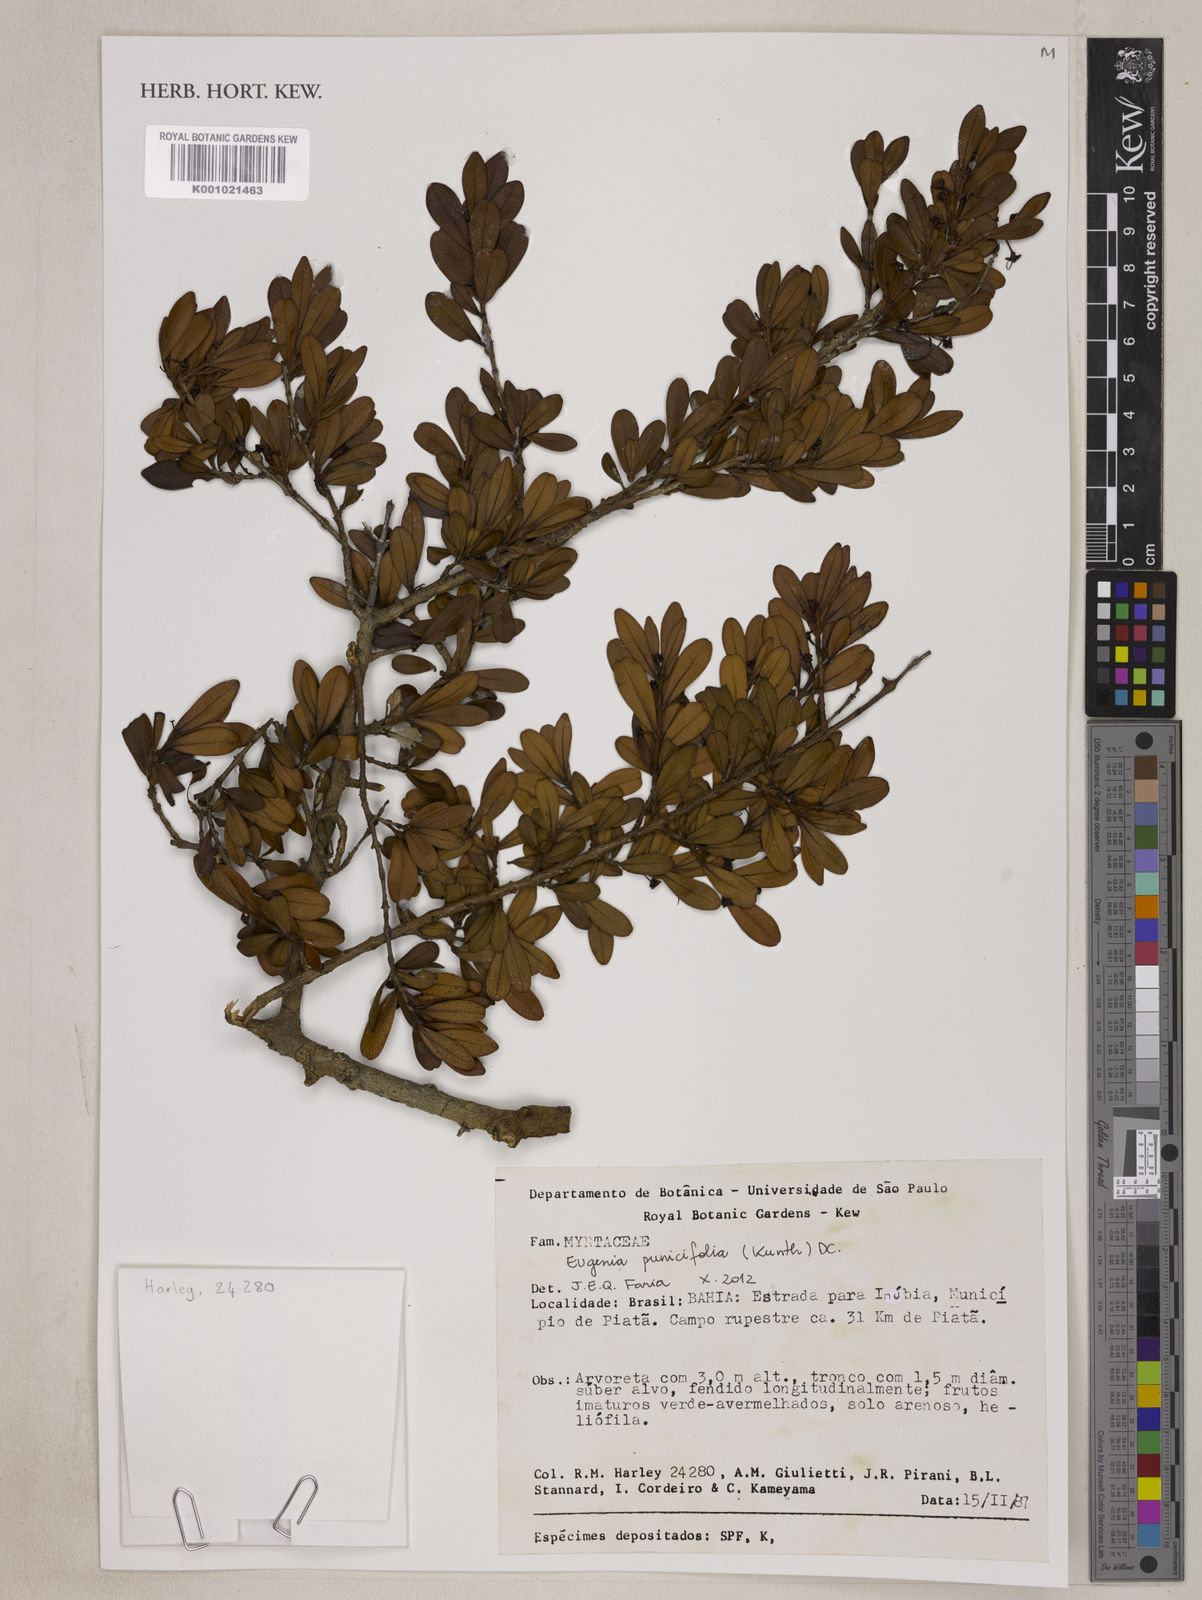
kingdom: Plantae
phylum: Tracheophyta
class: Magnoliopsida
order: Myrtales
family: Myrtaceae
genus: Eugenia
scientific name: Eugenia punicifolia
